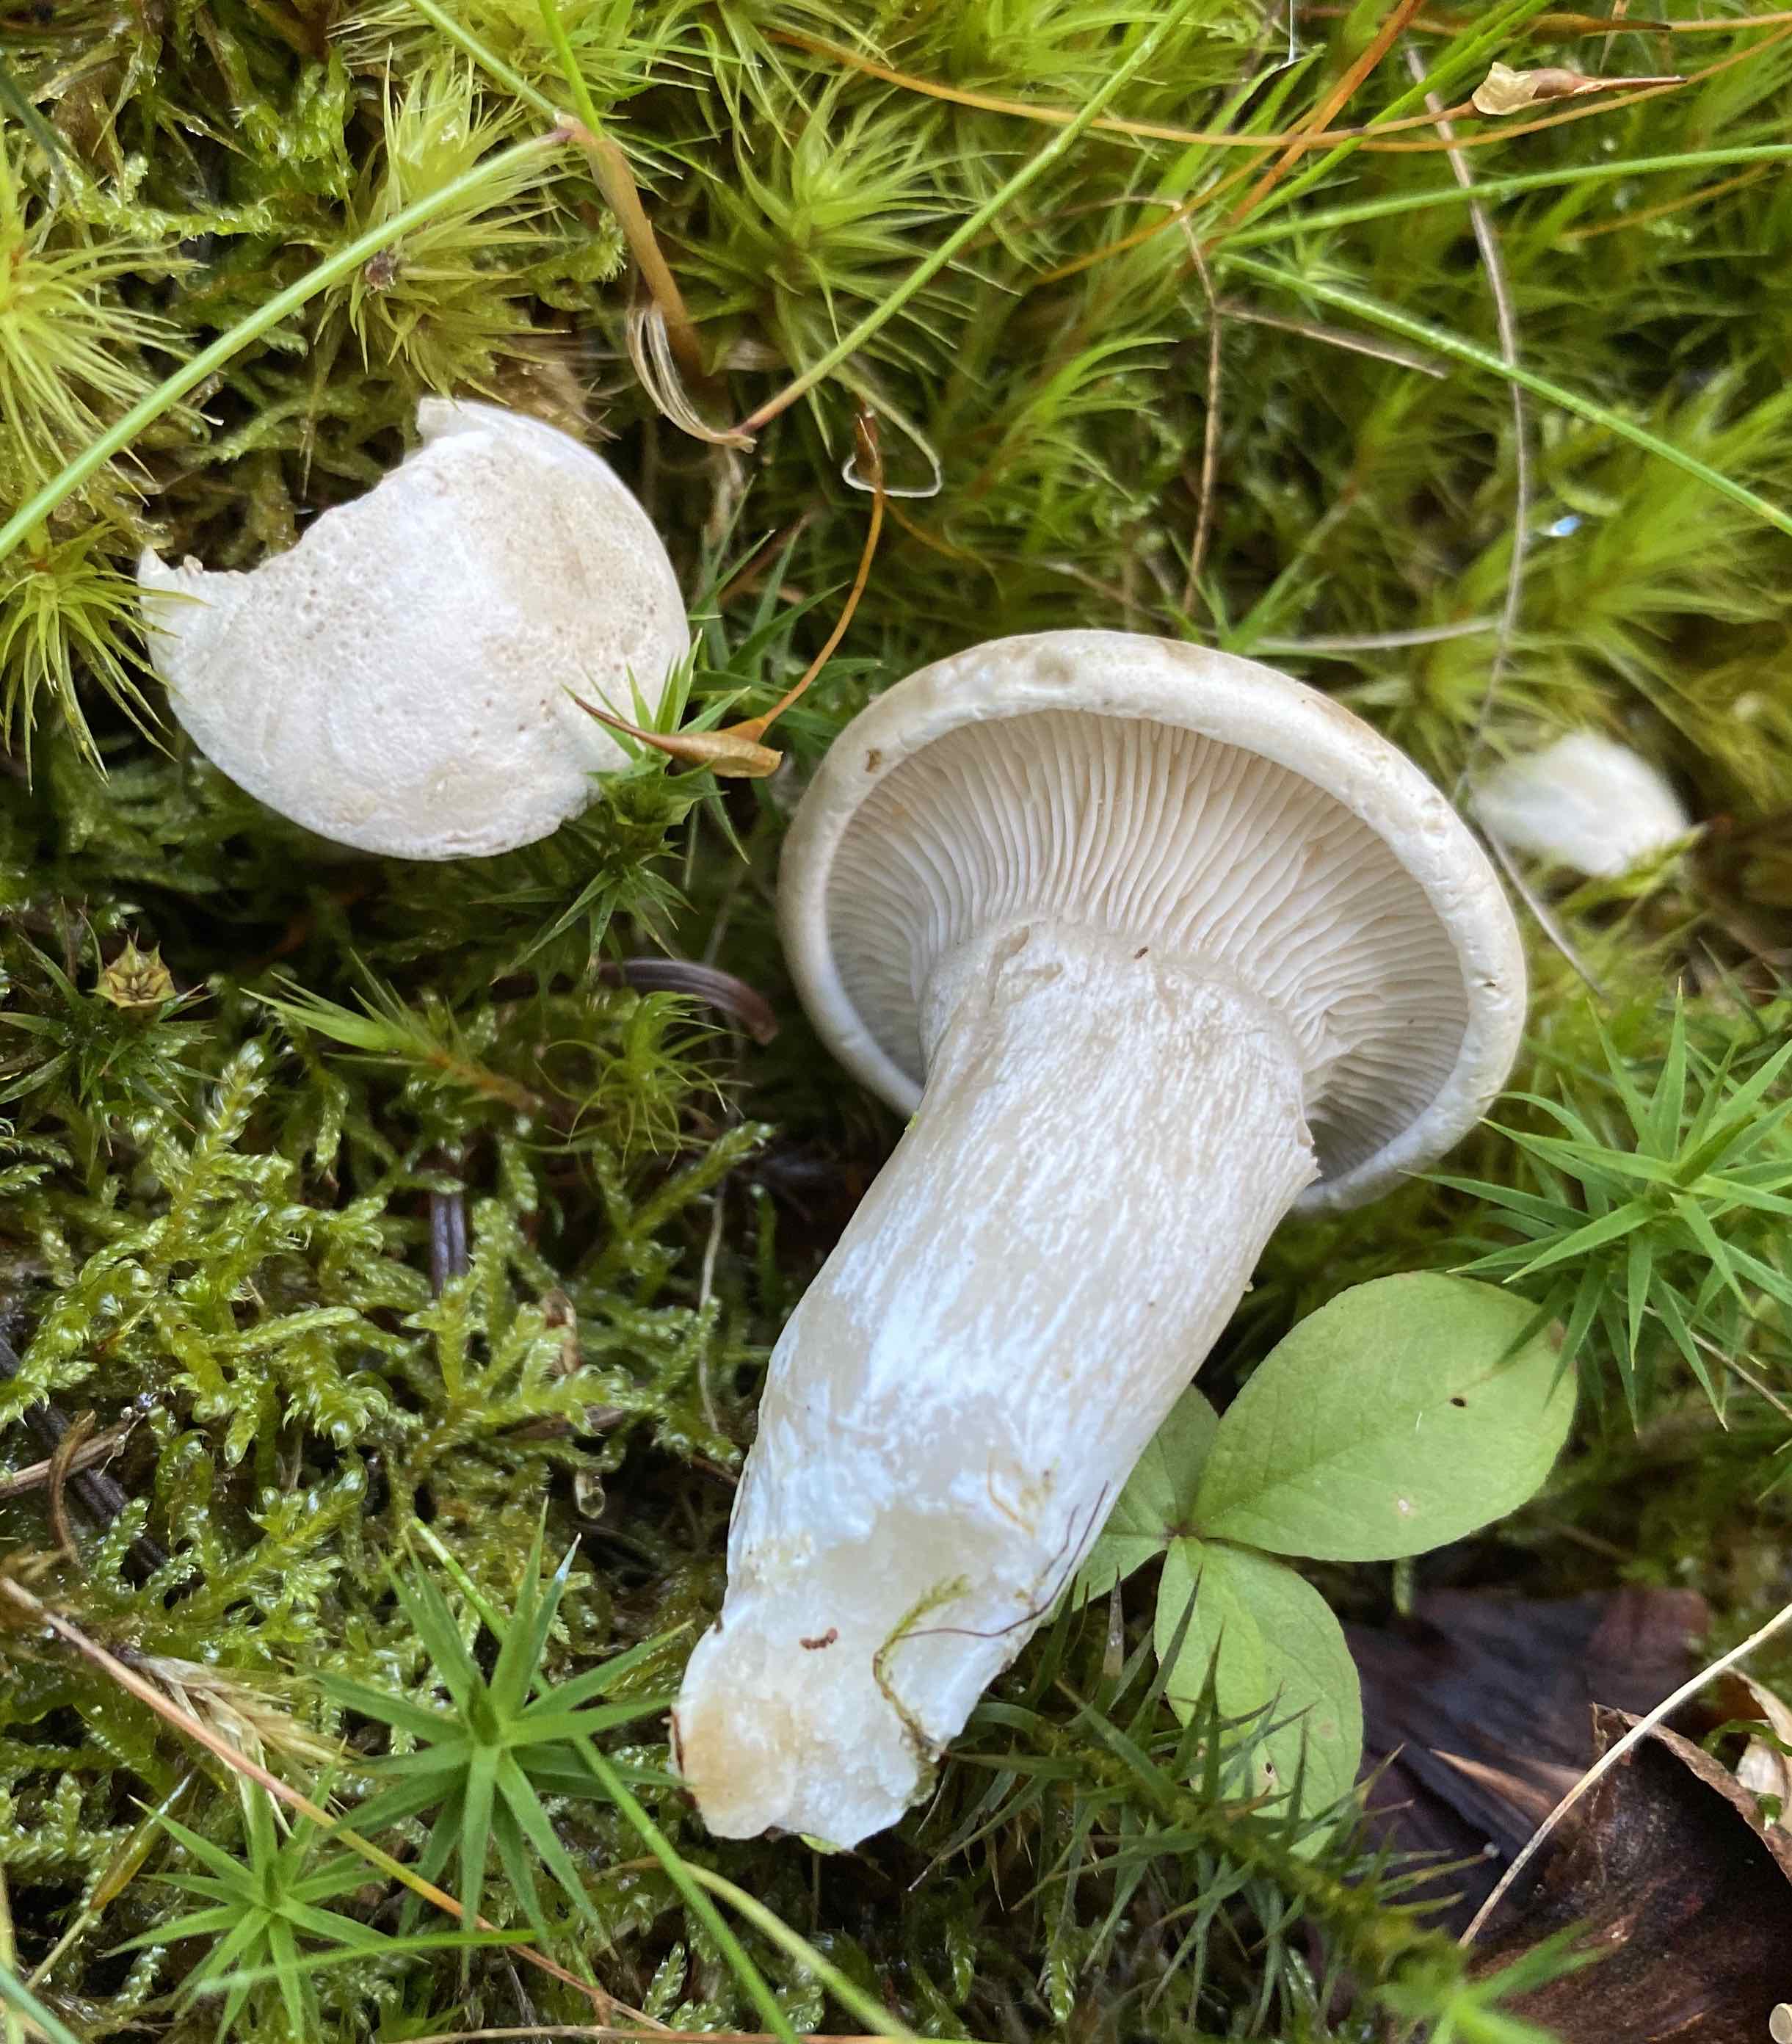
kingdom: Fungi
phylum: Basidiomycota
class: Agaricomycetes
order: Agaricales
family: Entolomataceae
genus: Clitopilus
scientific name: Clitopilus prunulus
